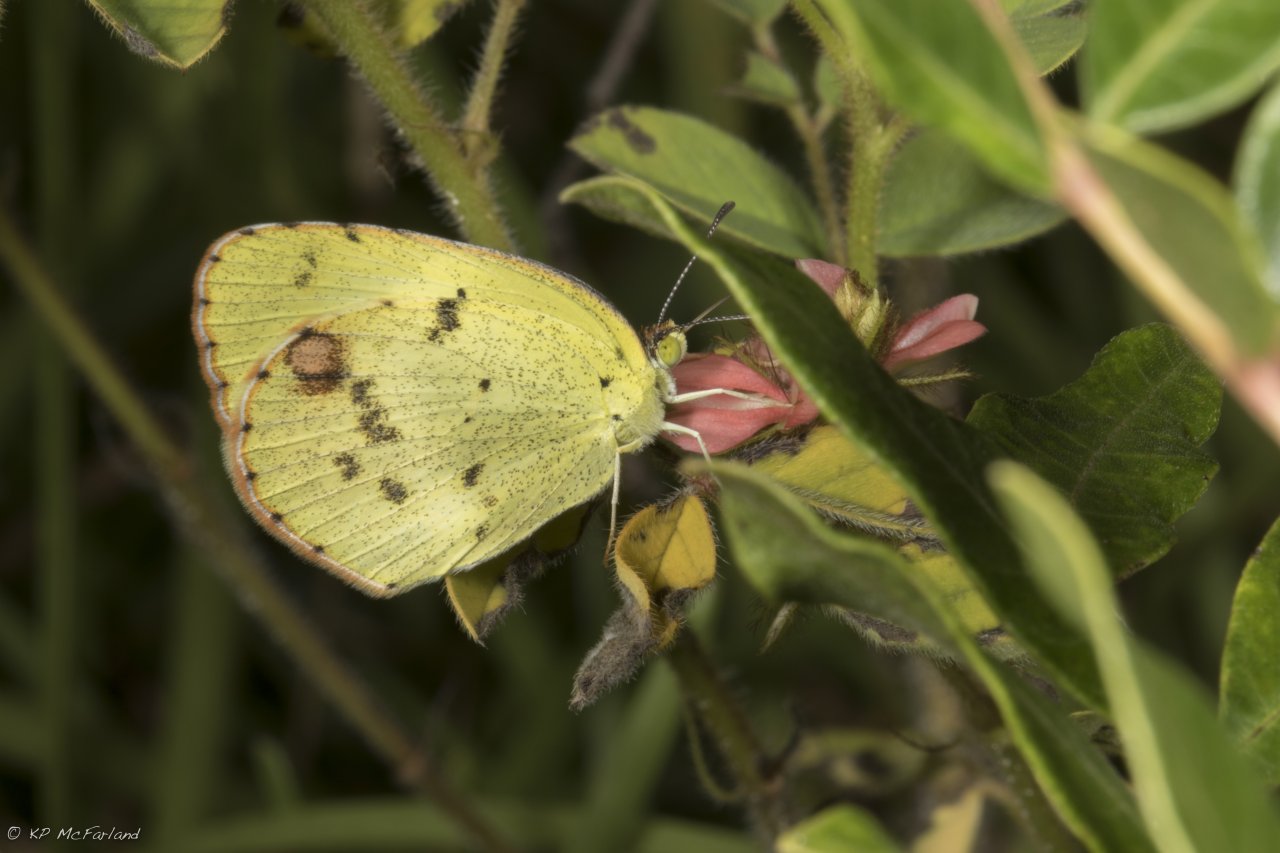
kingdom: Animalia
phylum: Arthropoda
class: Insecta
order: Lepidoptera
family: Pieridae
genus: Pyrisitia
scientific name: Pyrisitia lisa
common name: Little Yellow
